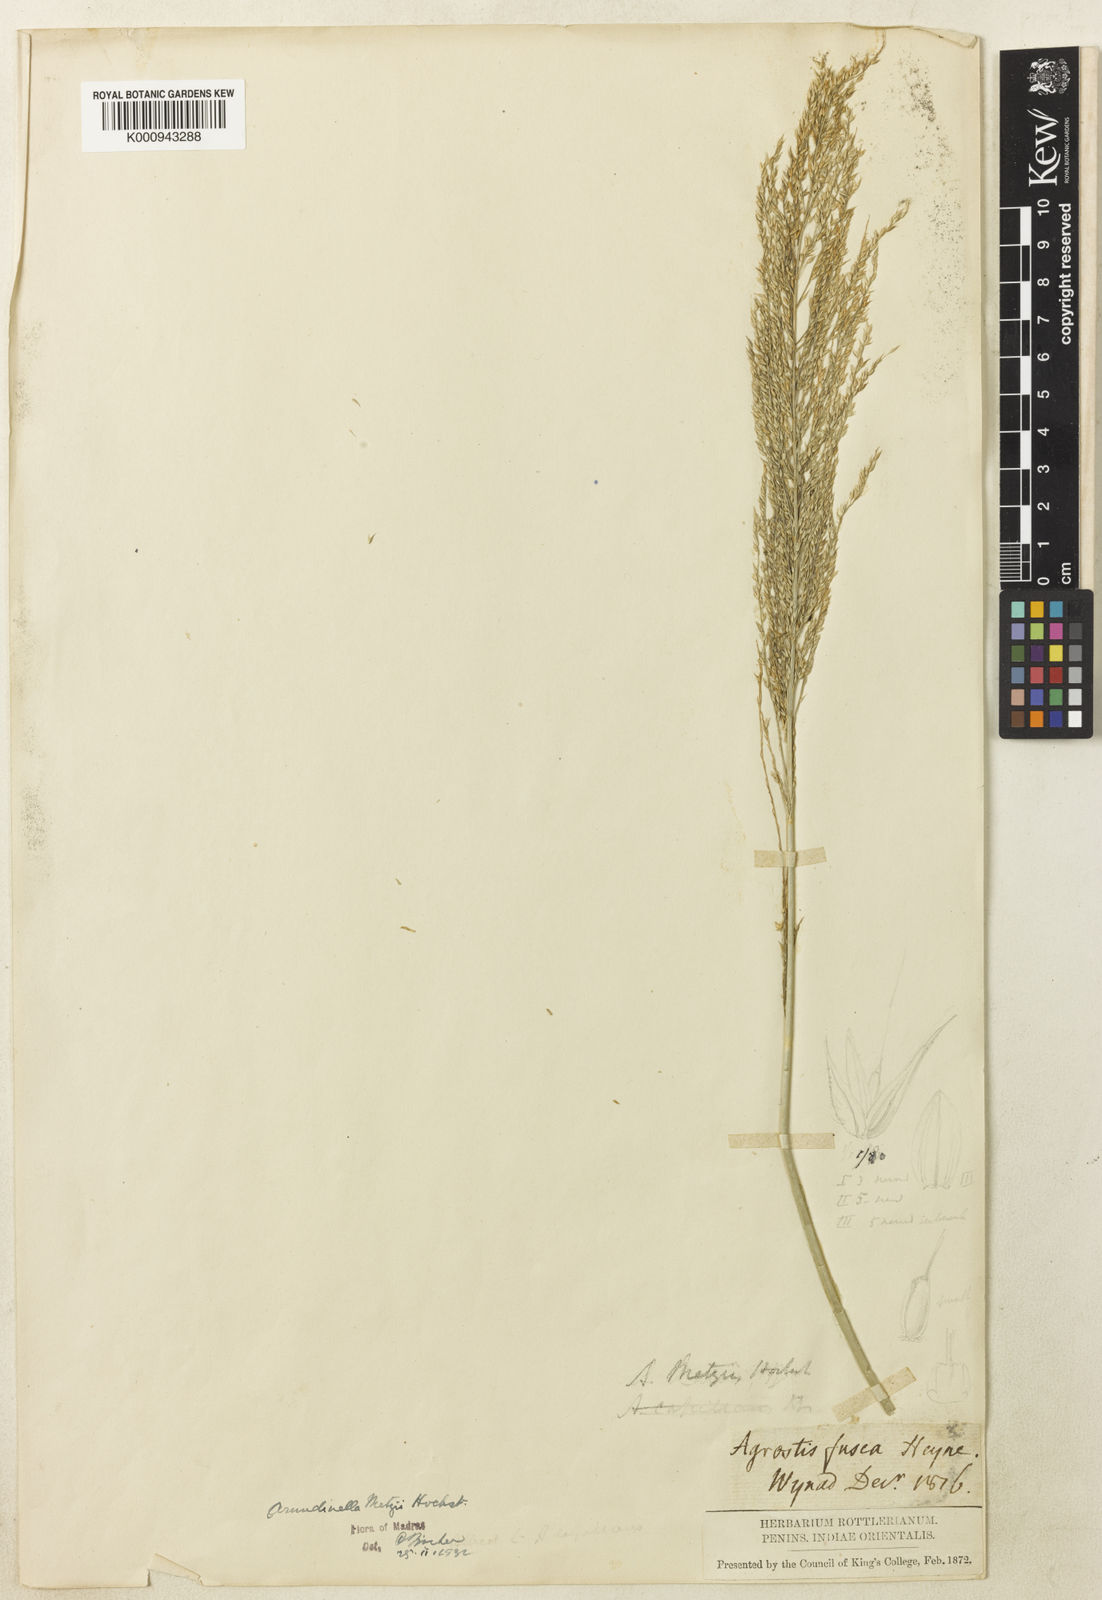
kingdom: Plantae
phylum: Tracheophyta
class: Liliopsida
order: Poales
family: Poaceae
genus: Arundinella
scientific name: Arundinella metzii
